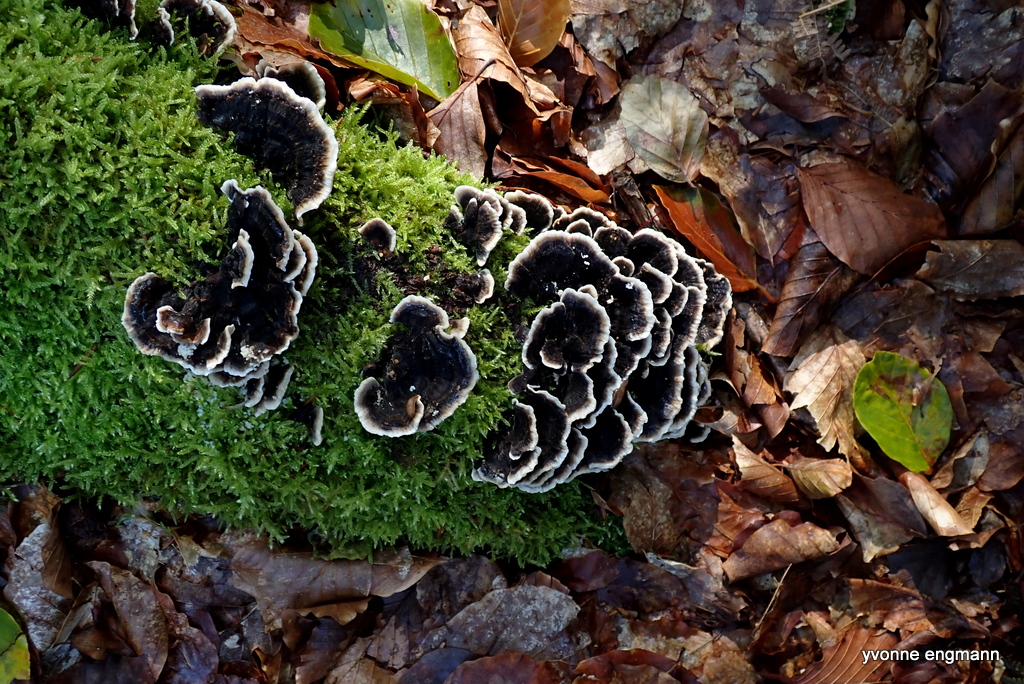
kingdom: Fungi
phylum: Basidiomycota
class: Agaricomycetes
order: Polyporales
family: Polyporaceae
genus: Trametes
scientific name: Trametes versicolor
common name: broget læderporesvamp
